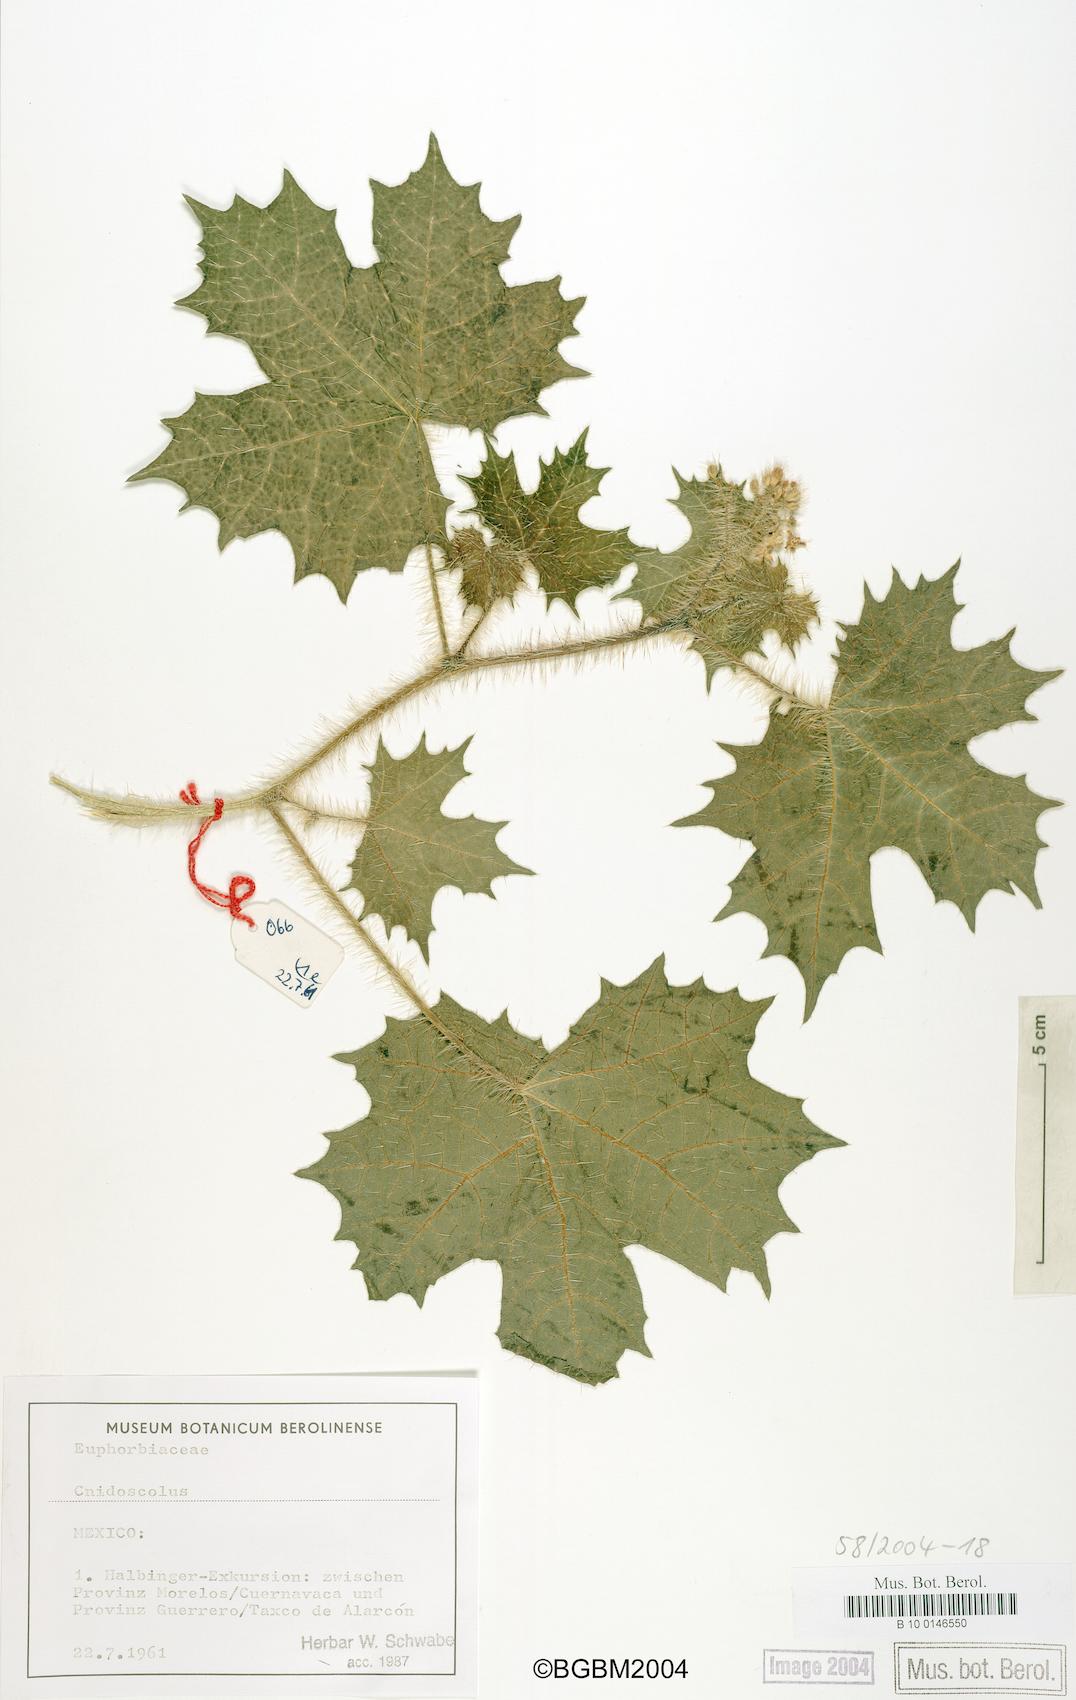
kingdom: Plantae
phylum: Tracheophyta
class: Magnoliopsida
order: Malpighiales
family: Euphorbiaceae
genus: Cnidoscolus
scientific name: Cnidoscolus
